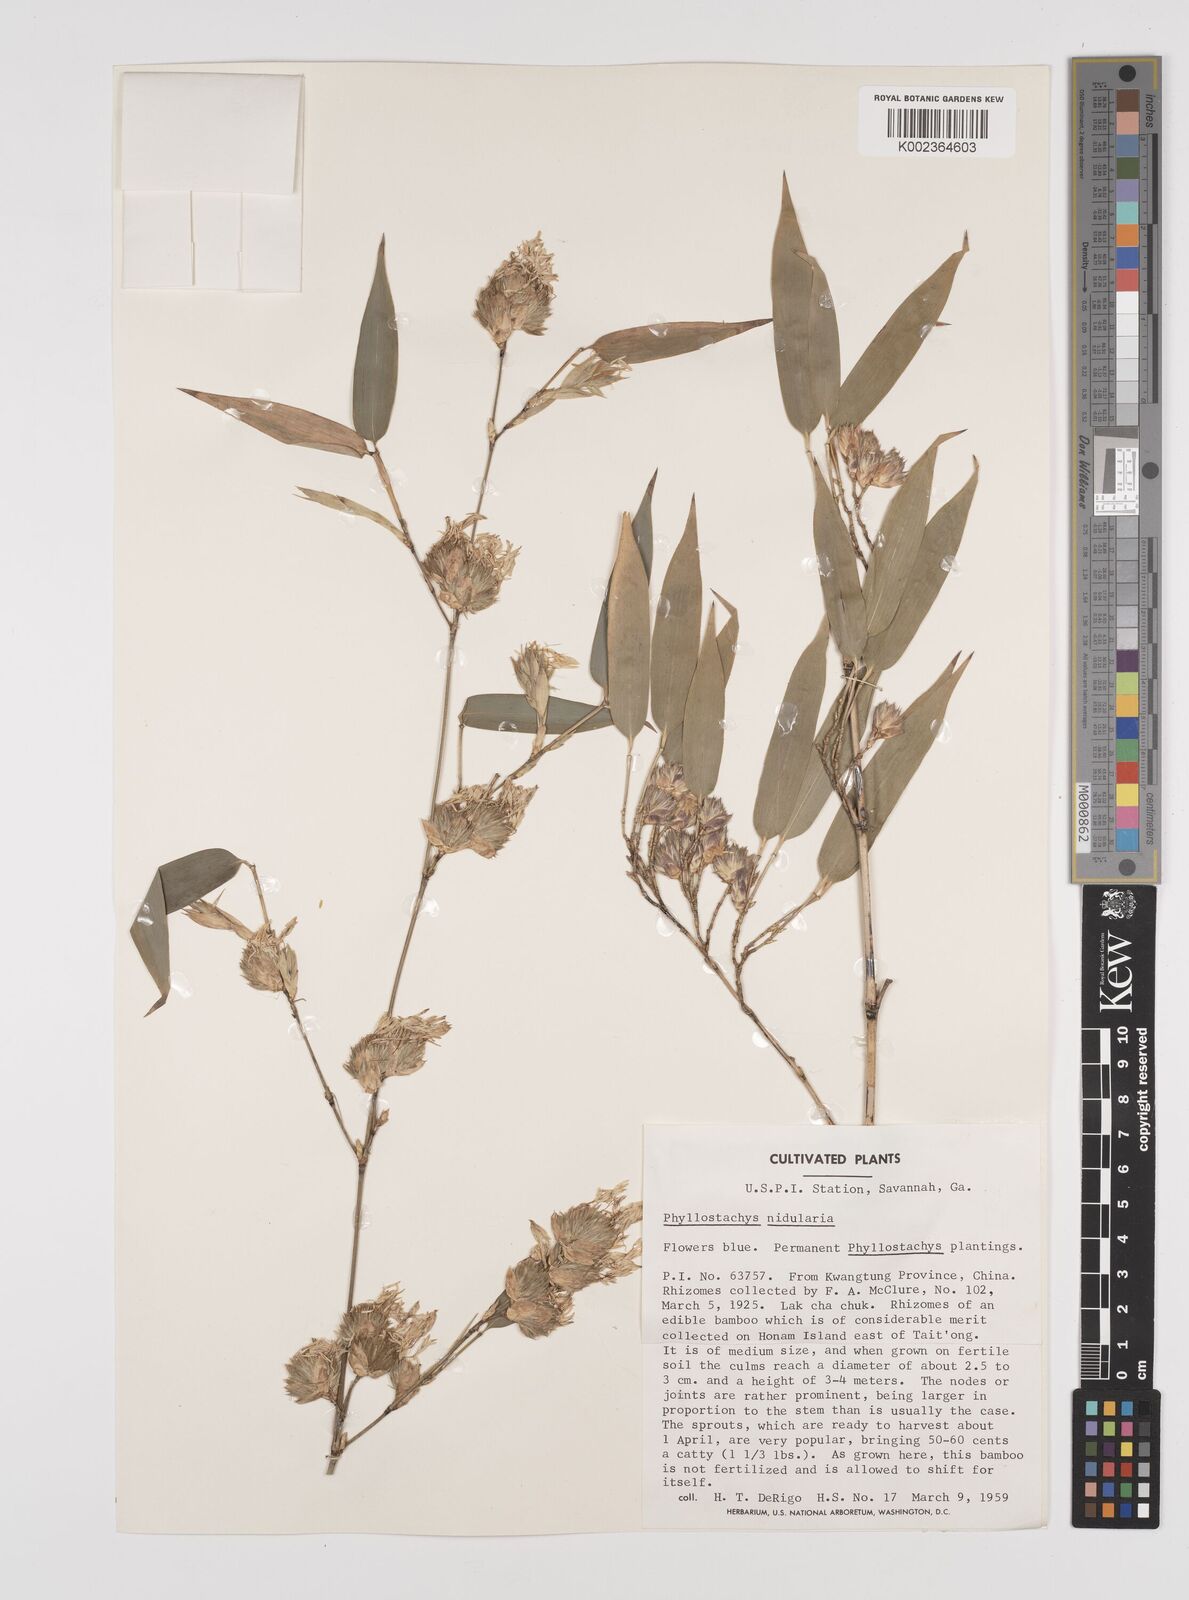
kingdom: Plantae
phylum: Tracheophyta
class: Liliopsida
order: Poales
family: Poaceae
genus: Phyllostachys
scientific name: Phyllostachys nidularia
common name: Broom bamboo
